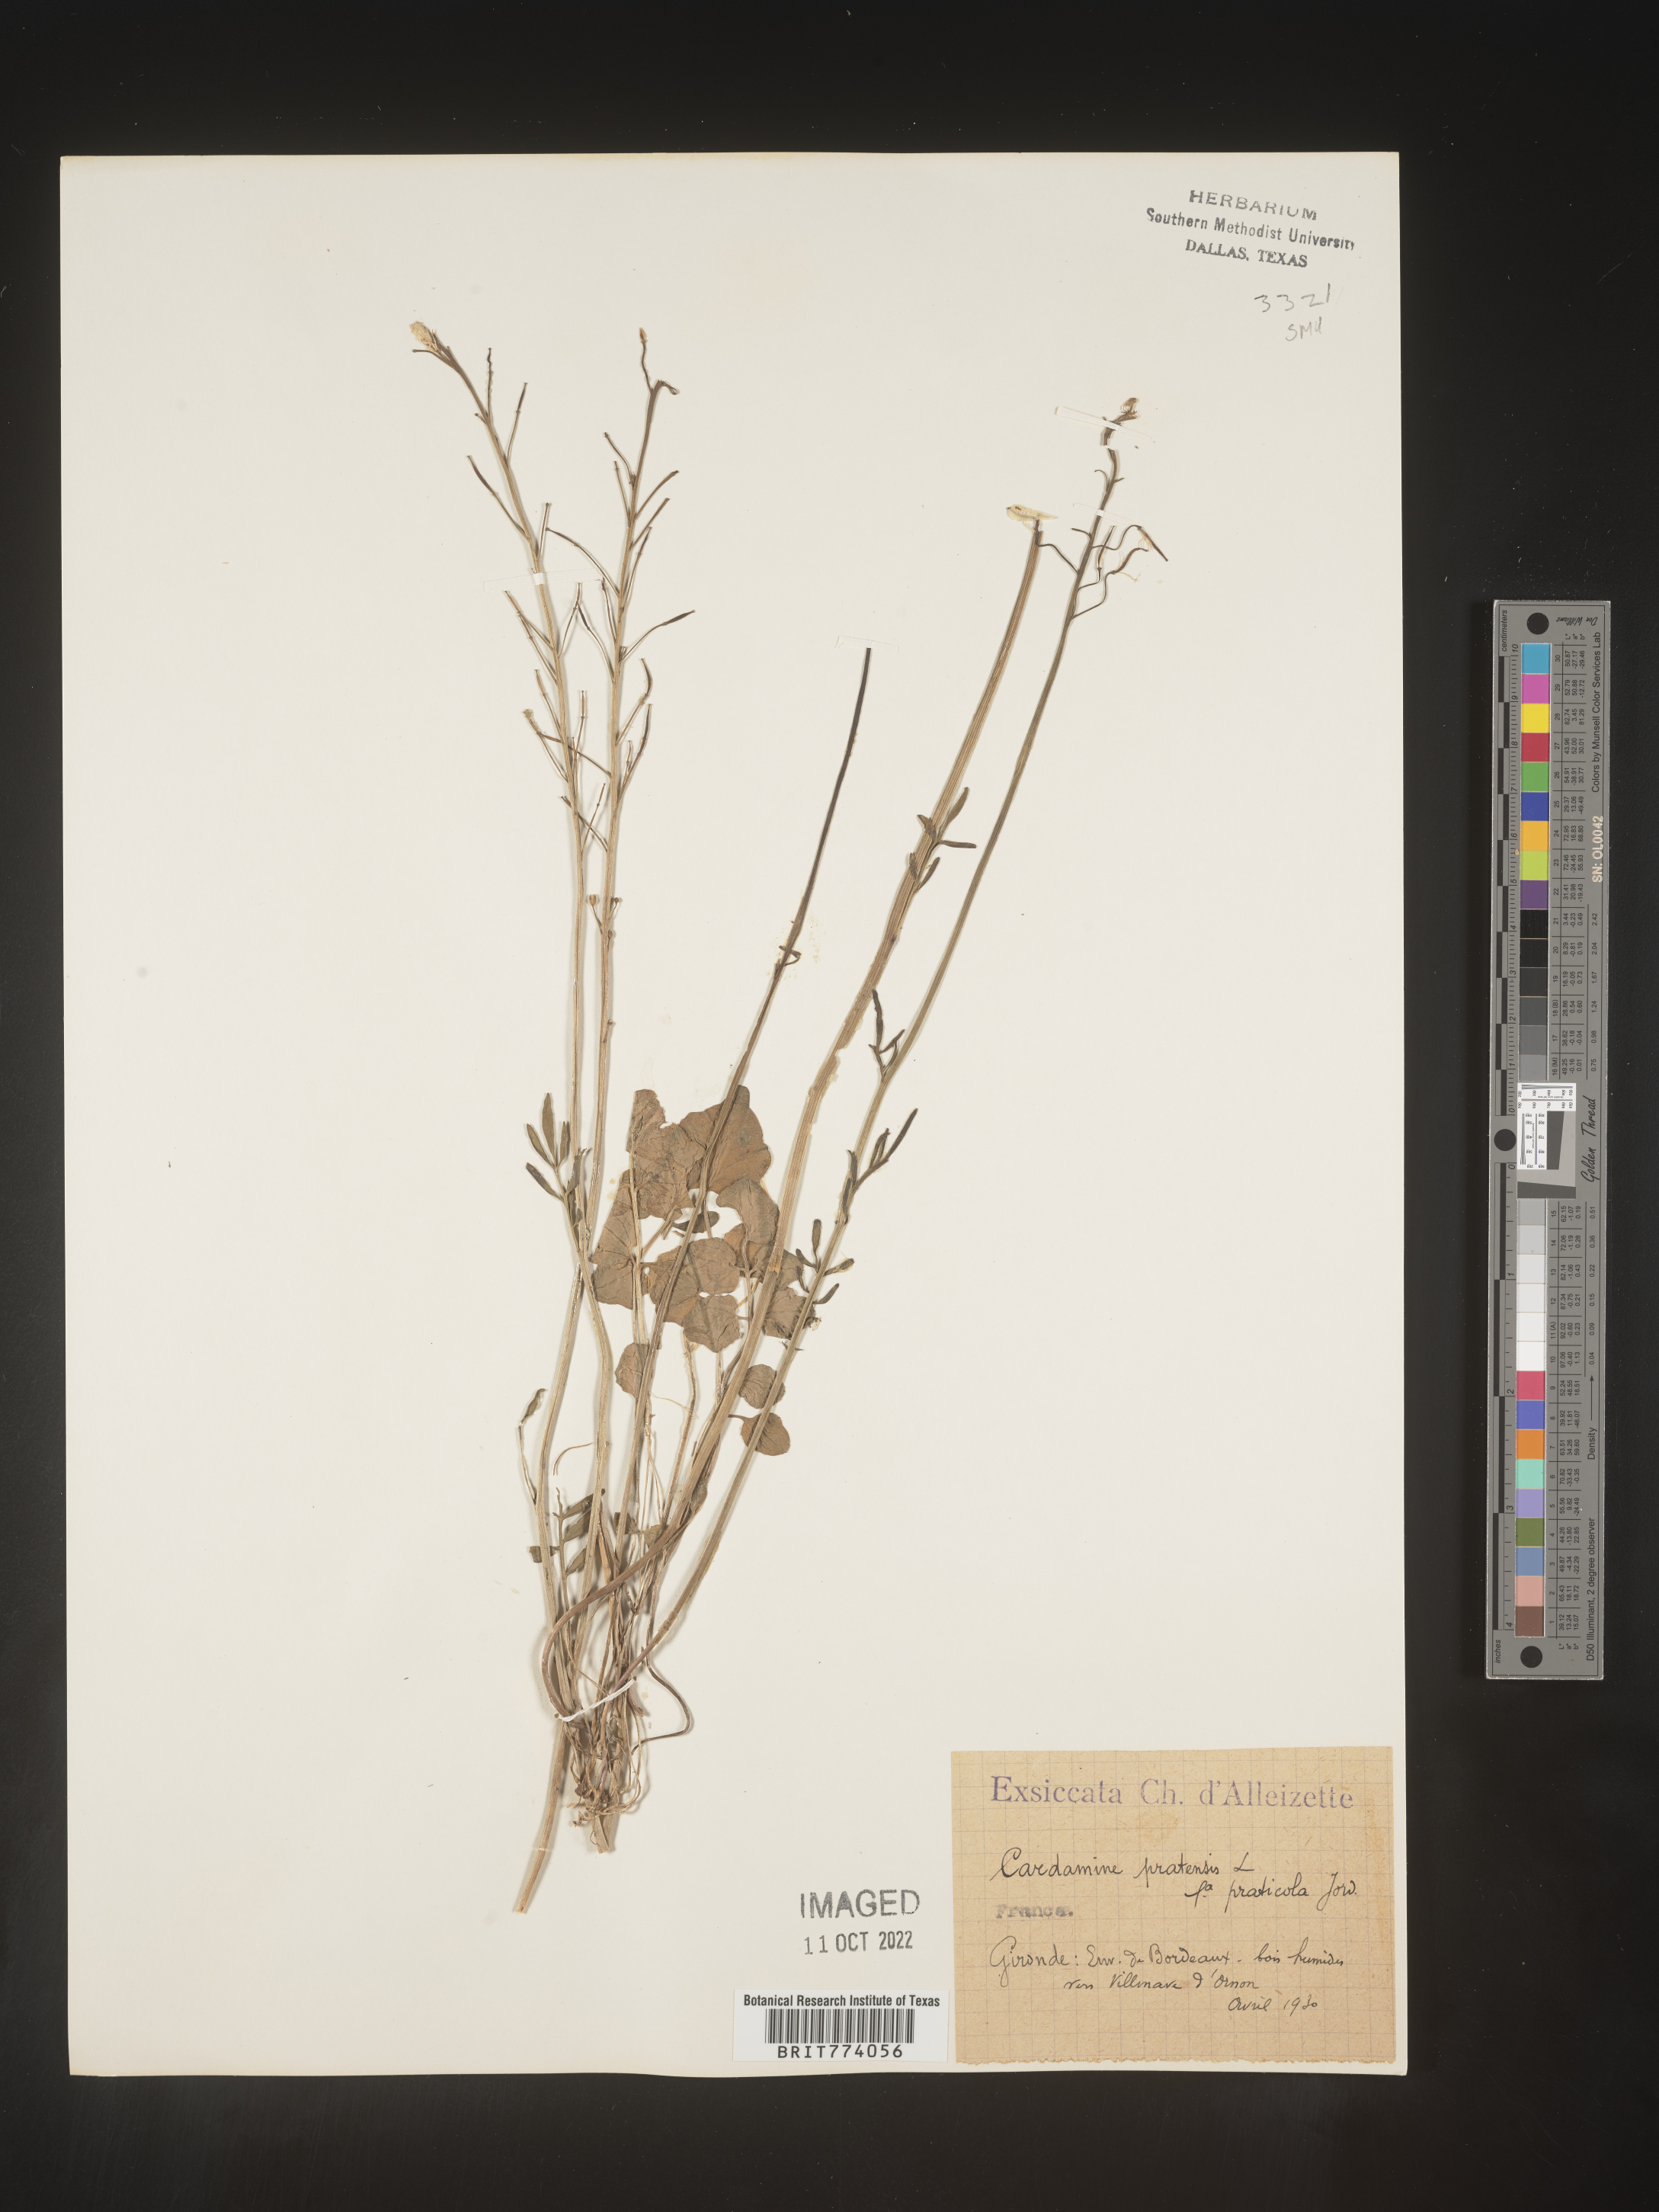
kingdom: Plantae
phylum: Tracheophyta
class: Magnoliopsida
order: Brassicales
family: Brassicaceae
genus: Cardamine
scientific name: Cardamine pratensis
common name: Cuckoo flower
